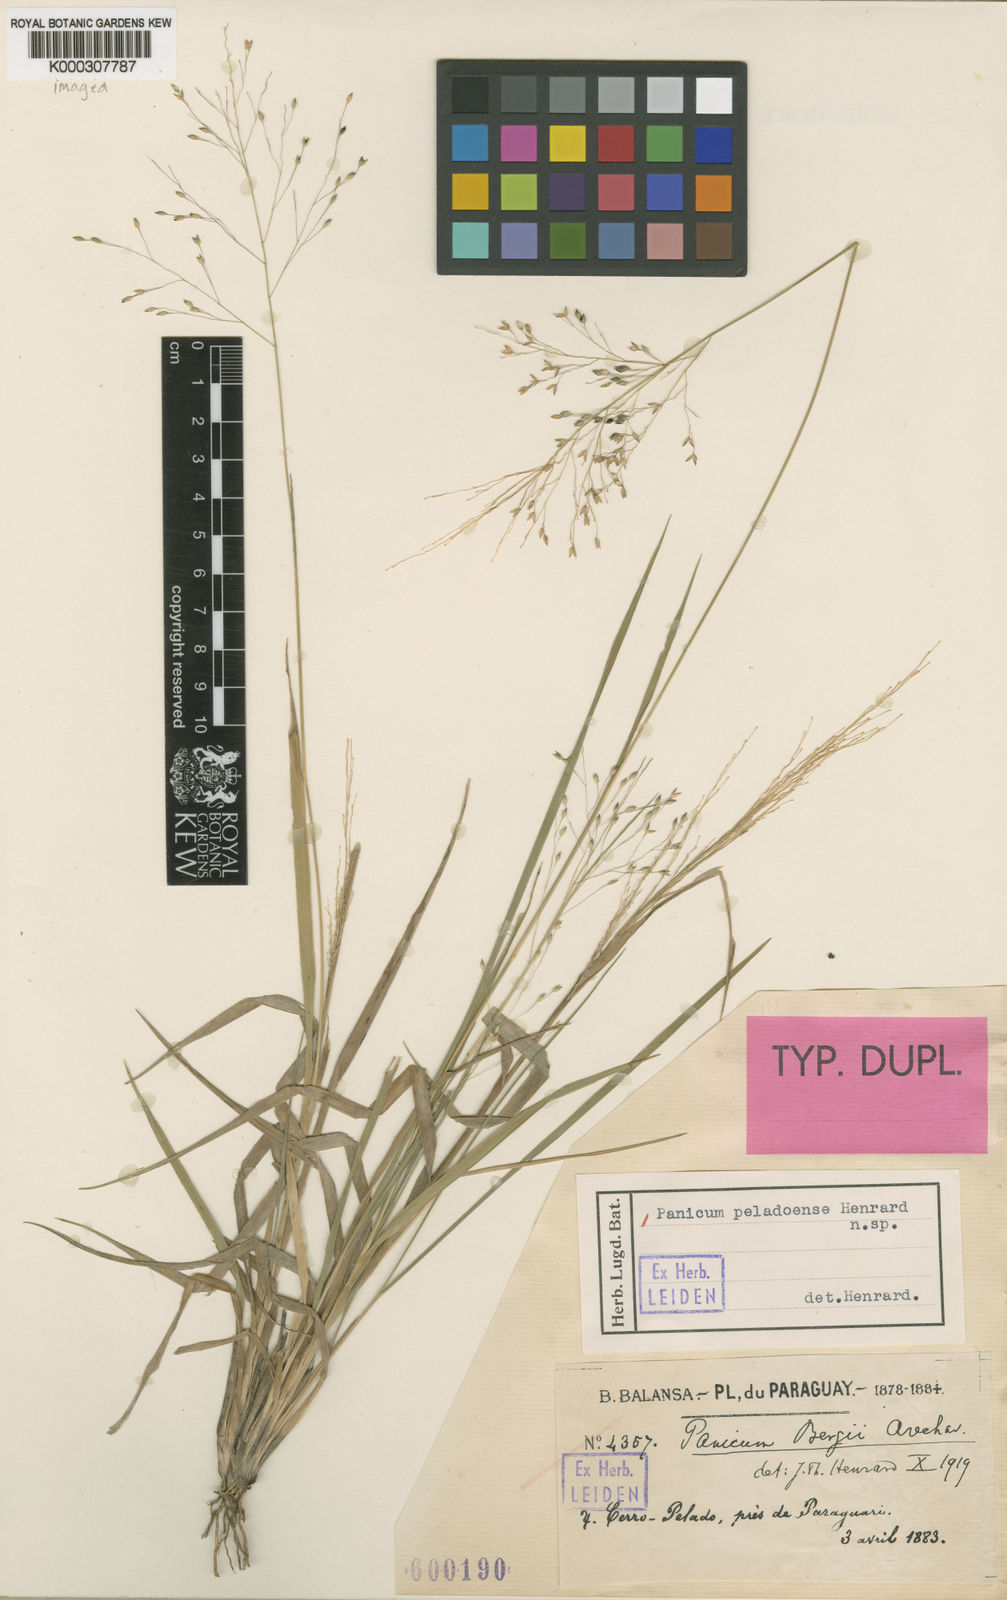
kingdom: Plantae
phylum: Tracheophyta
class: Liliopsida
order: Poales
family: Poaceae
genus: Panicum
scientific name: Panicum peladoense
